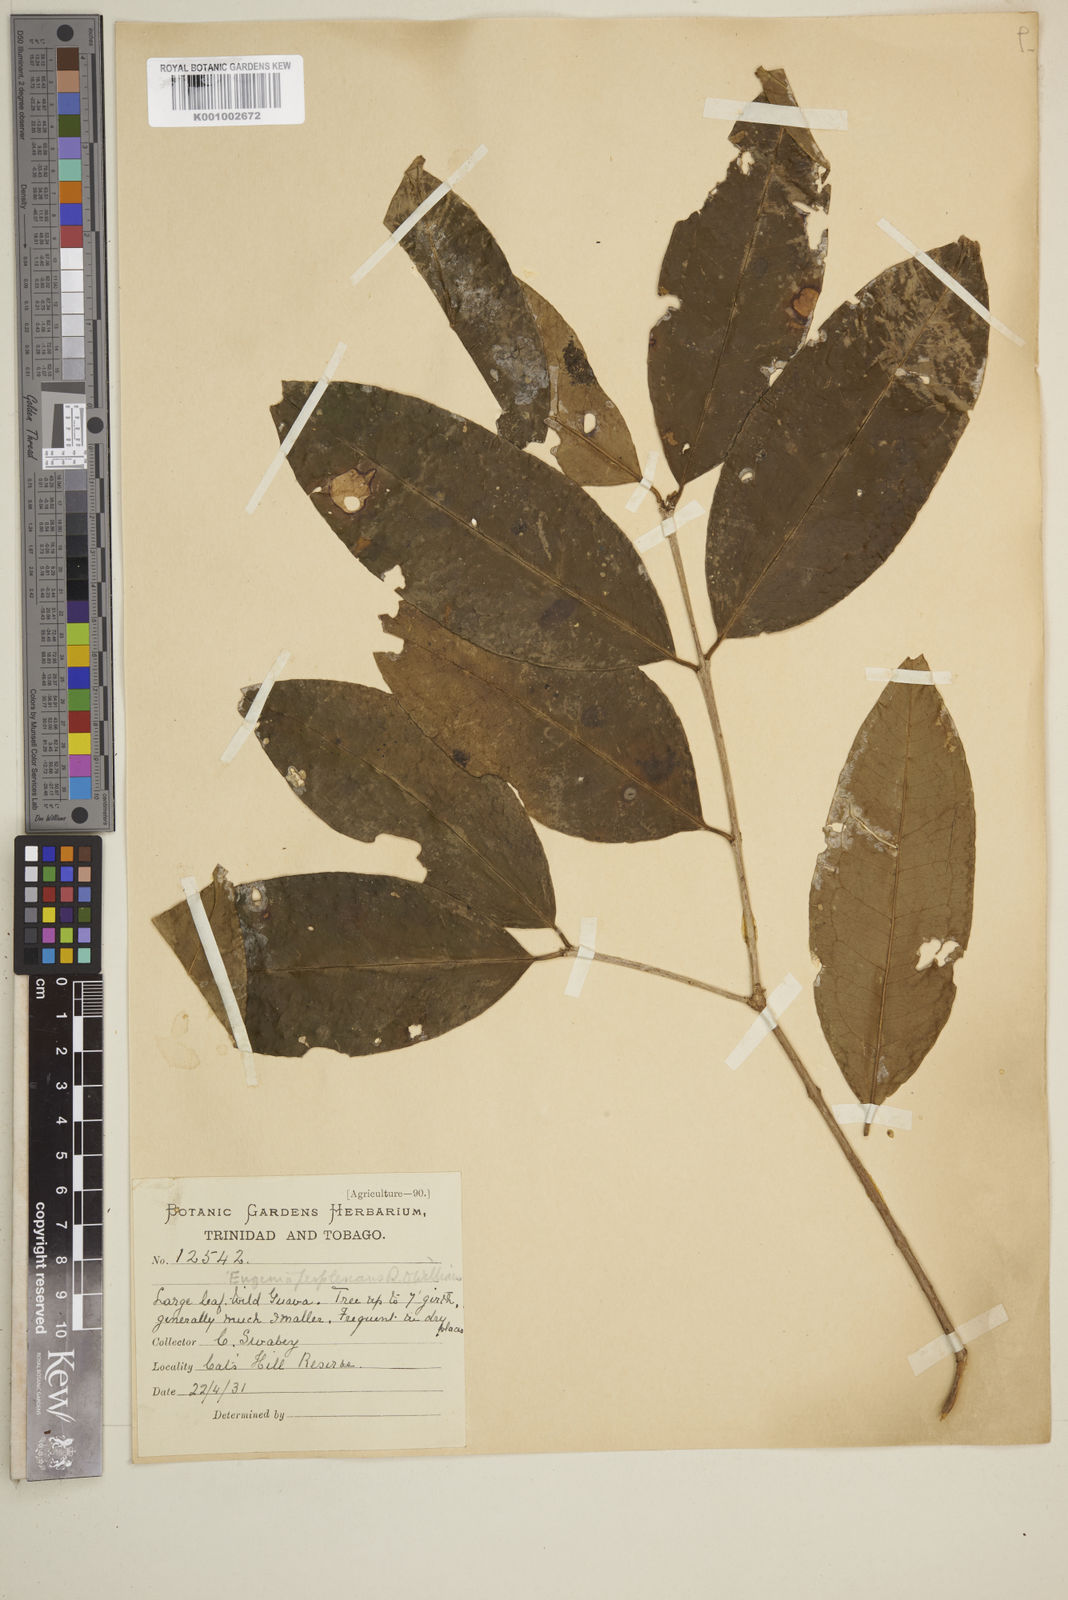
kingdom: Plantae
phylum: Tracheophyta
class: Magnoliopsida
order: Myrtales
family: Myrtaceae
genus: Eugenia
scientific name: Eugenia trinervia
